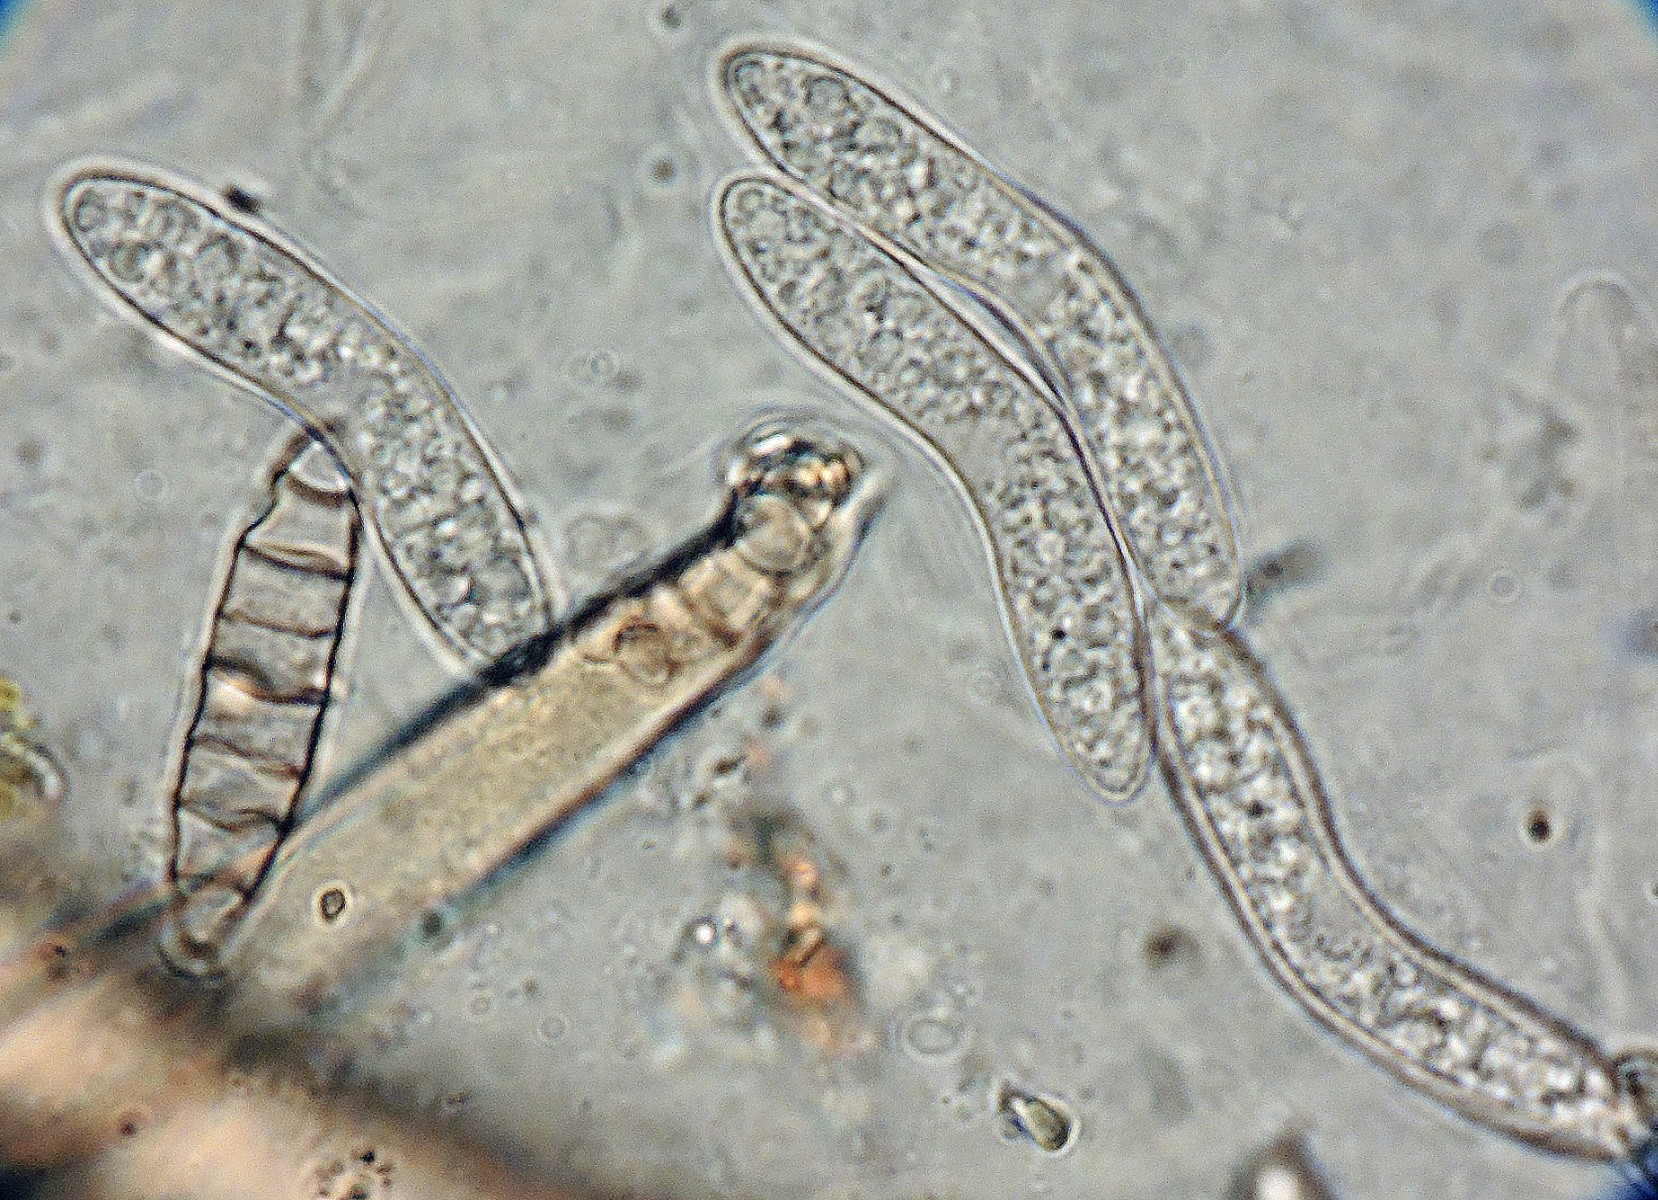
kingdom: Fungi
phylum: Ascomycota
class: Sordariomycetes
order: Sordariales
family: Helminthosphaeriaceae
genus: Echinosphaeria
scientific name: Echinosphaeria canescens
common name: brun børstekerne
